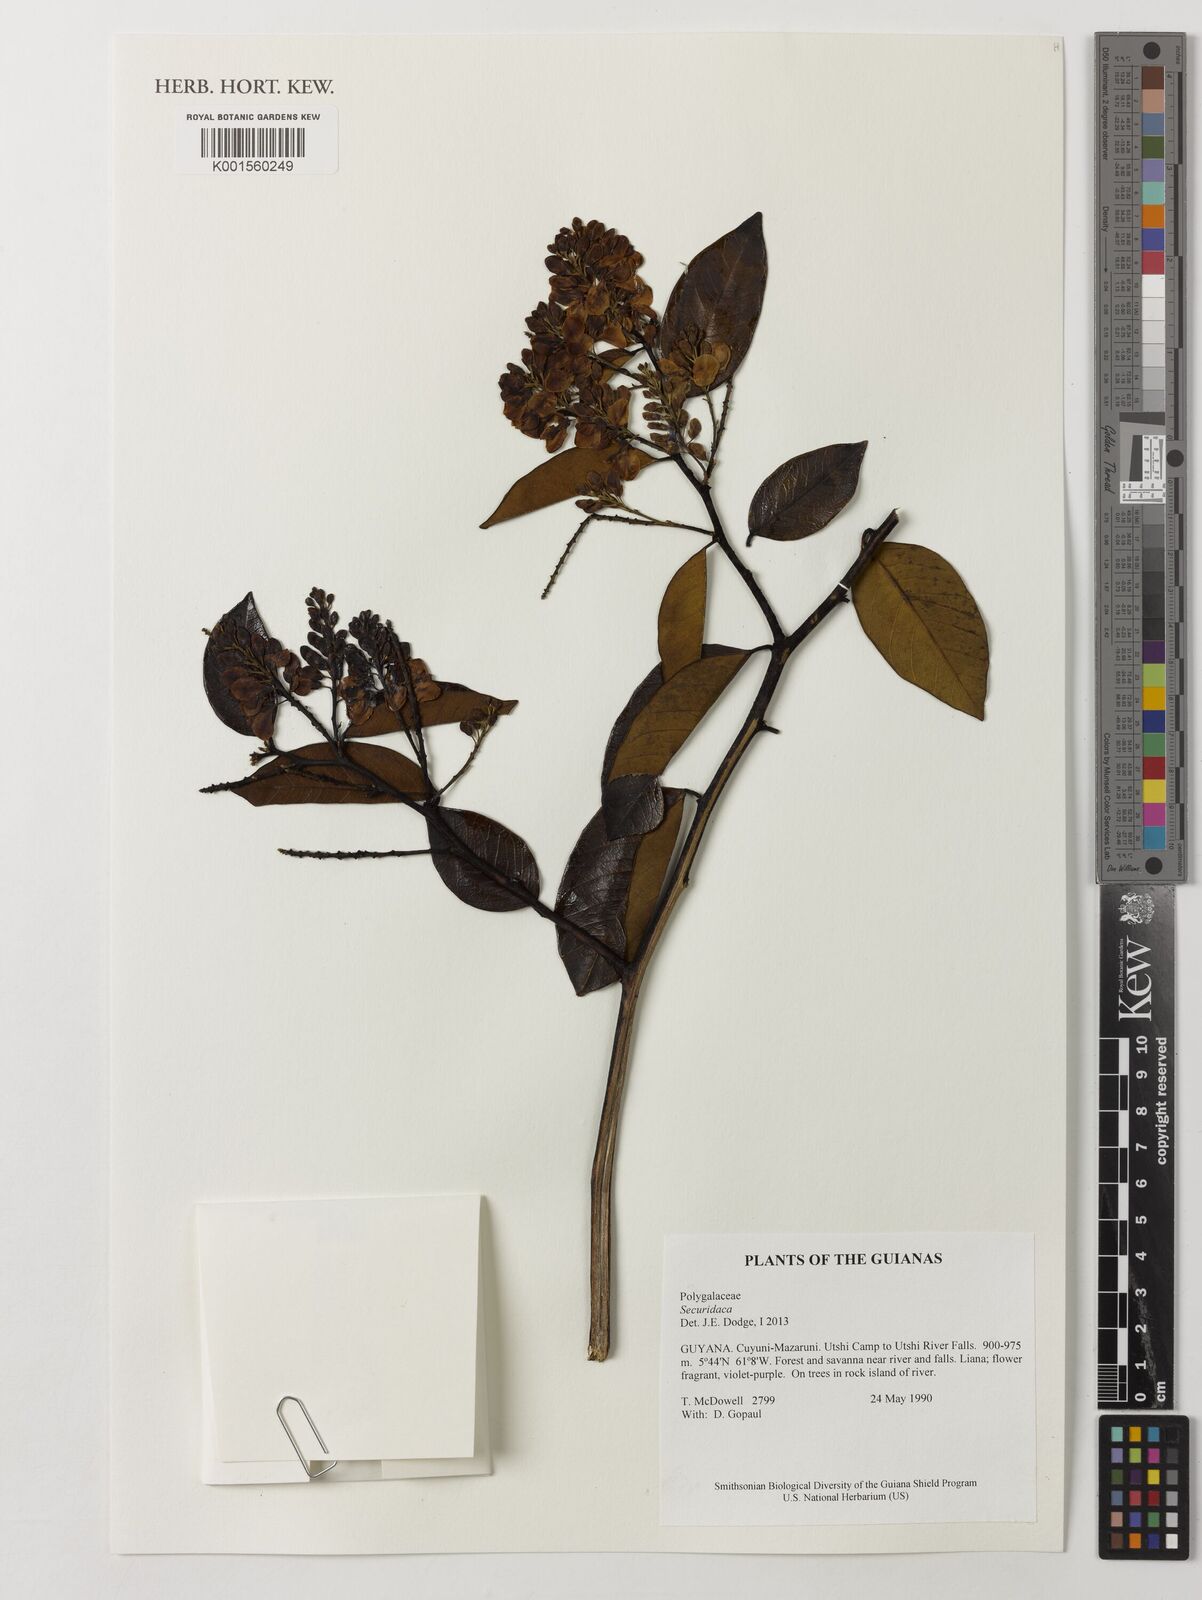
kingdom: Plantae
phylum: Tracheophyta
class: Magnoliopsida
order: Fabales
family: Polygalaceae
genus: Securidaca
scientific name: Securidaca
